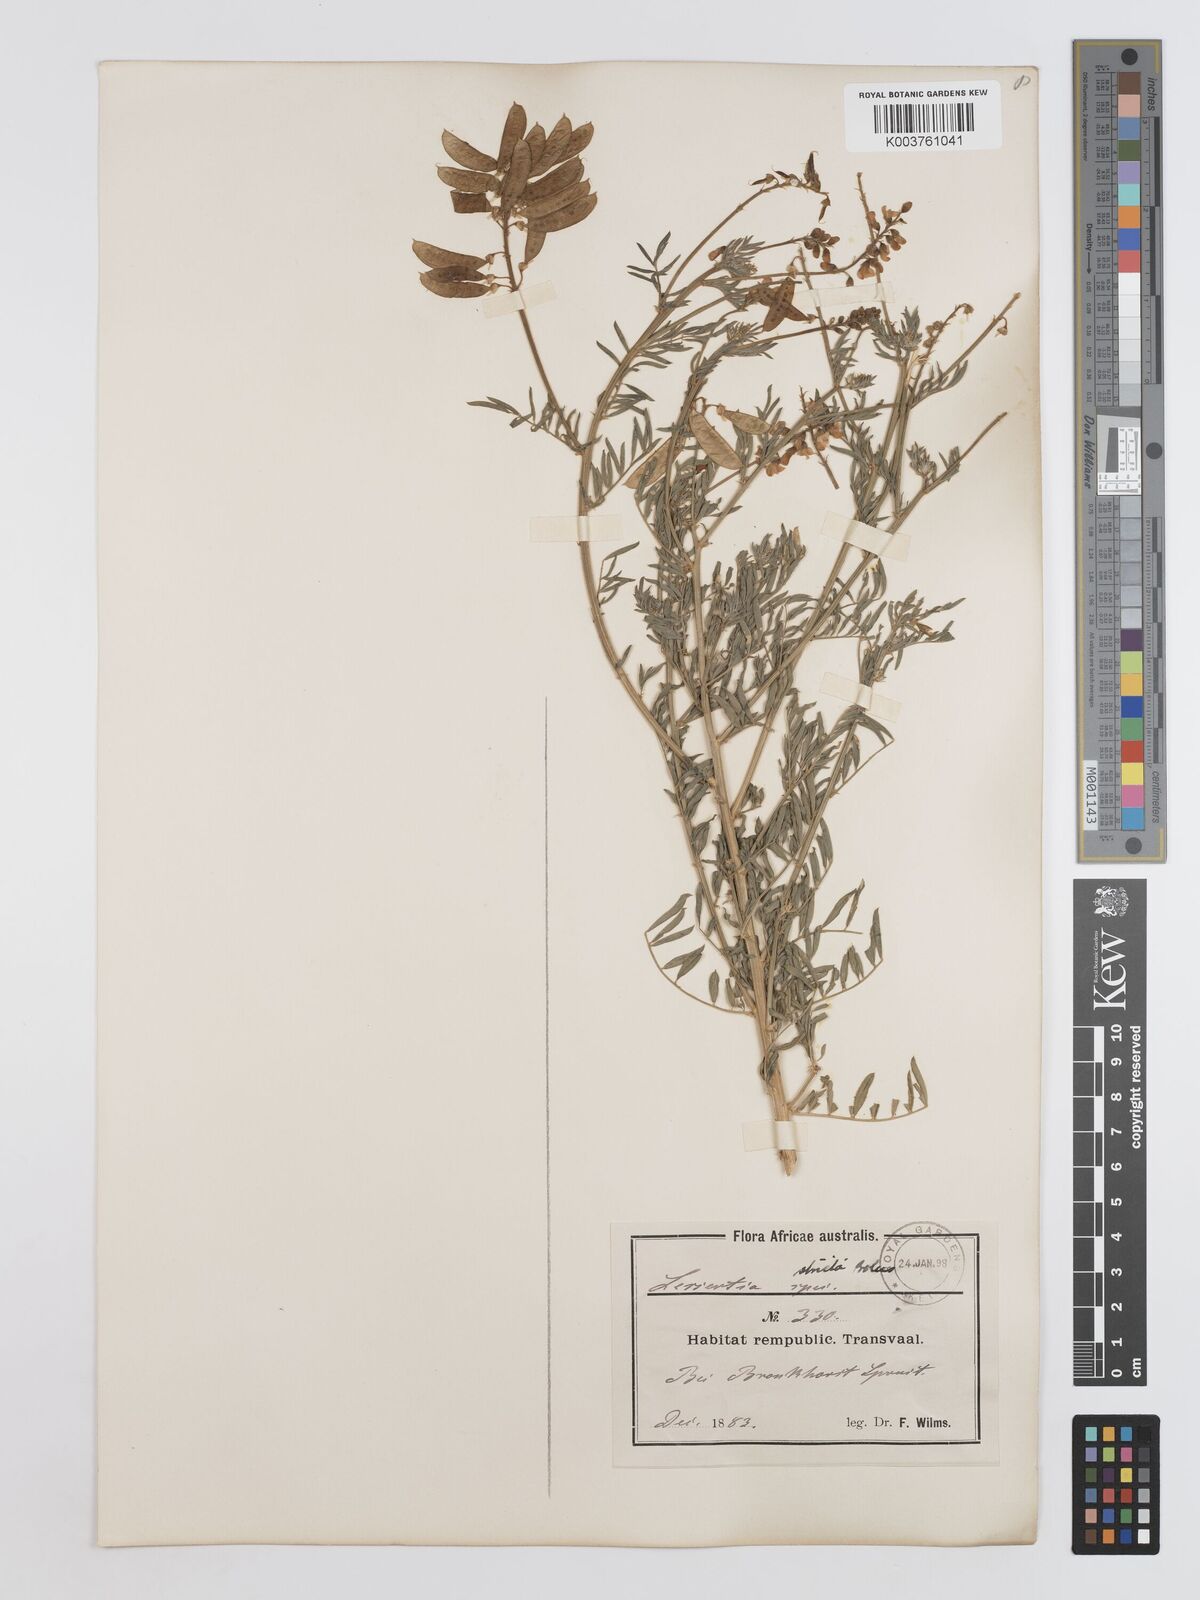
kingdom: Plantae
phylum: Tracheophyta
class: Magnoliopsida
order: Fabales
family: Fabaceae
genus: Lessertia
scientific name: Lessertia stricta
